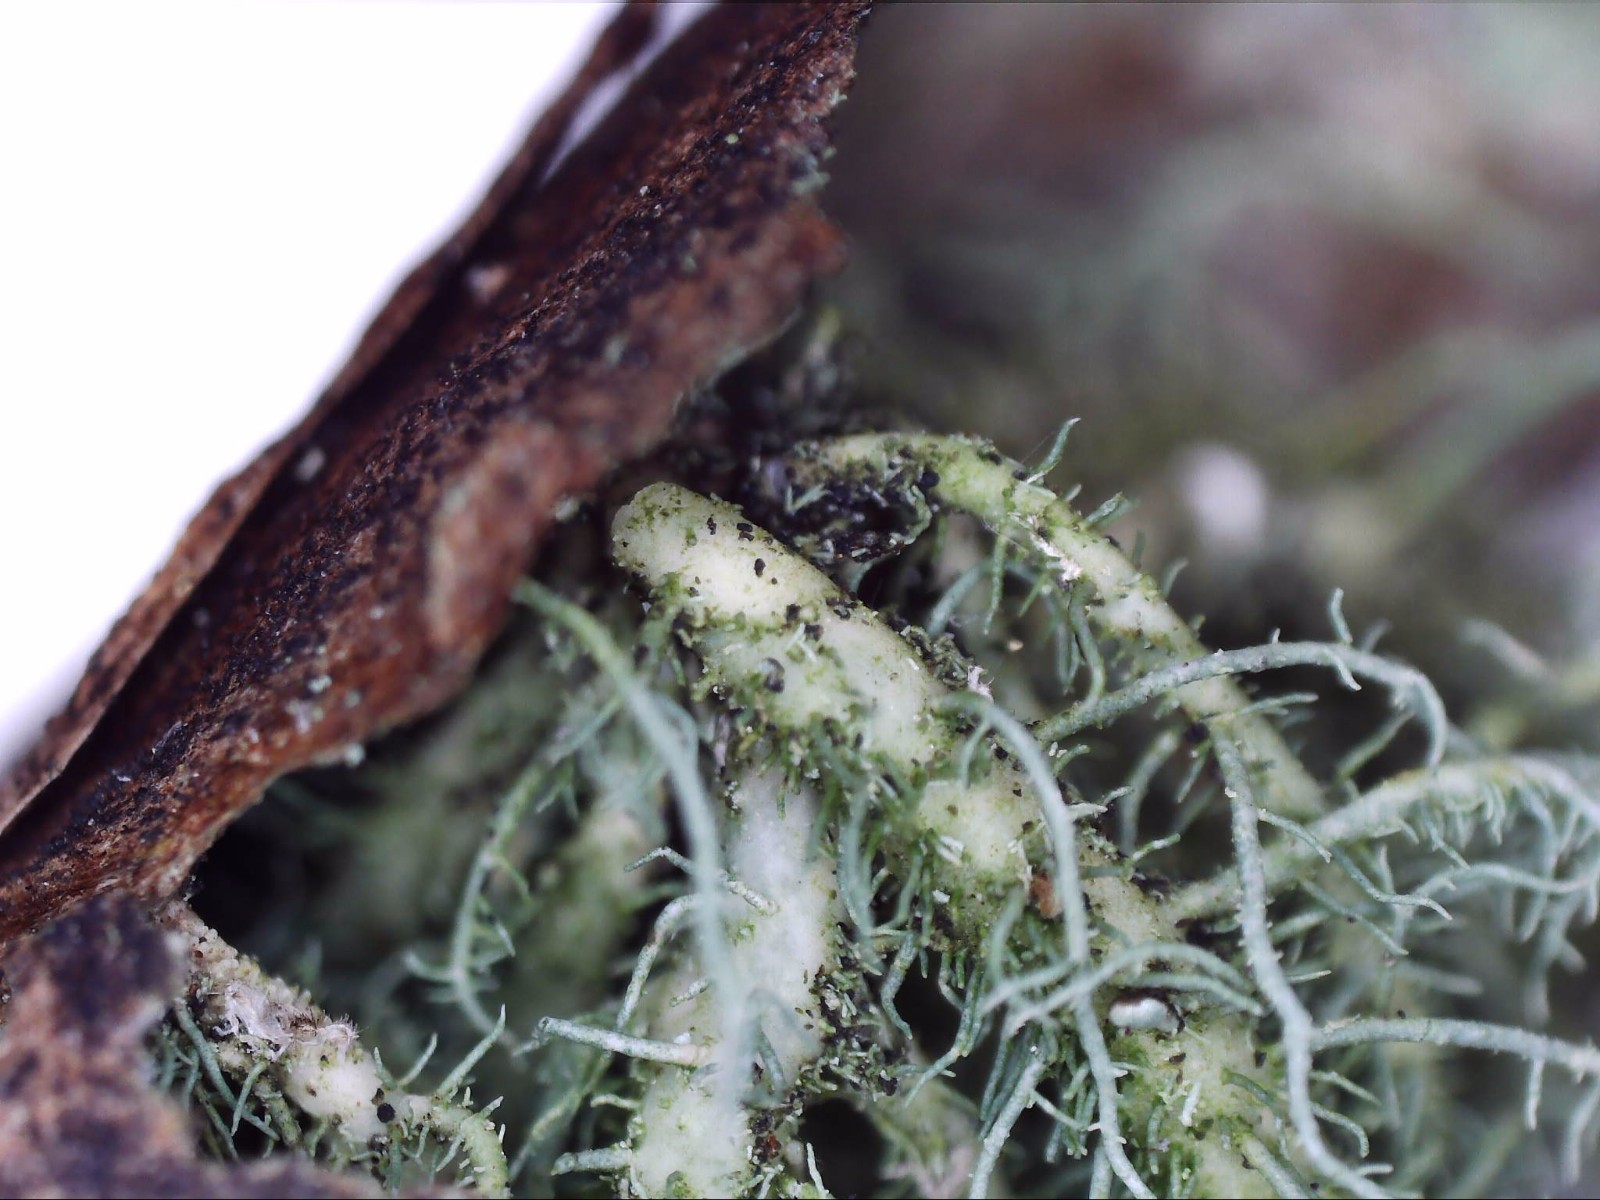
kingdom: Fungi
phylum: Ascomycota
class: Lecanoromycetes
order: Lecanorales
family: Parmeliaceae
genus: Usnea
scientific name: Usnea hirta
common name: liden skæglav
